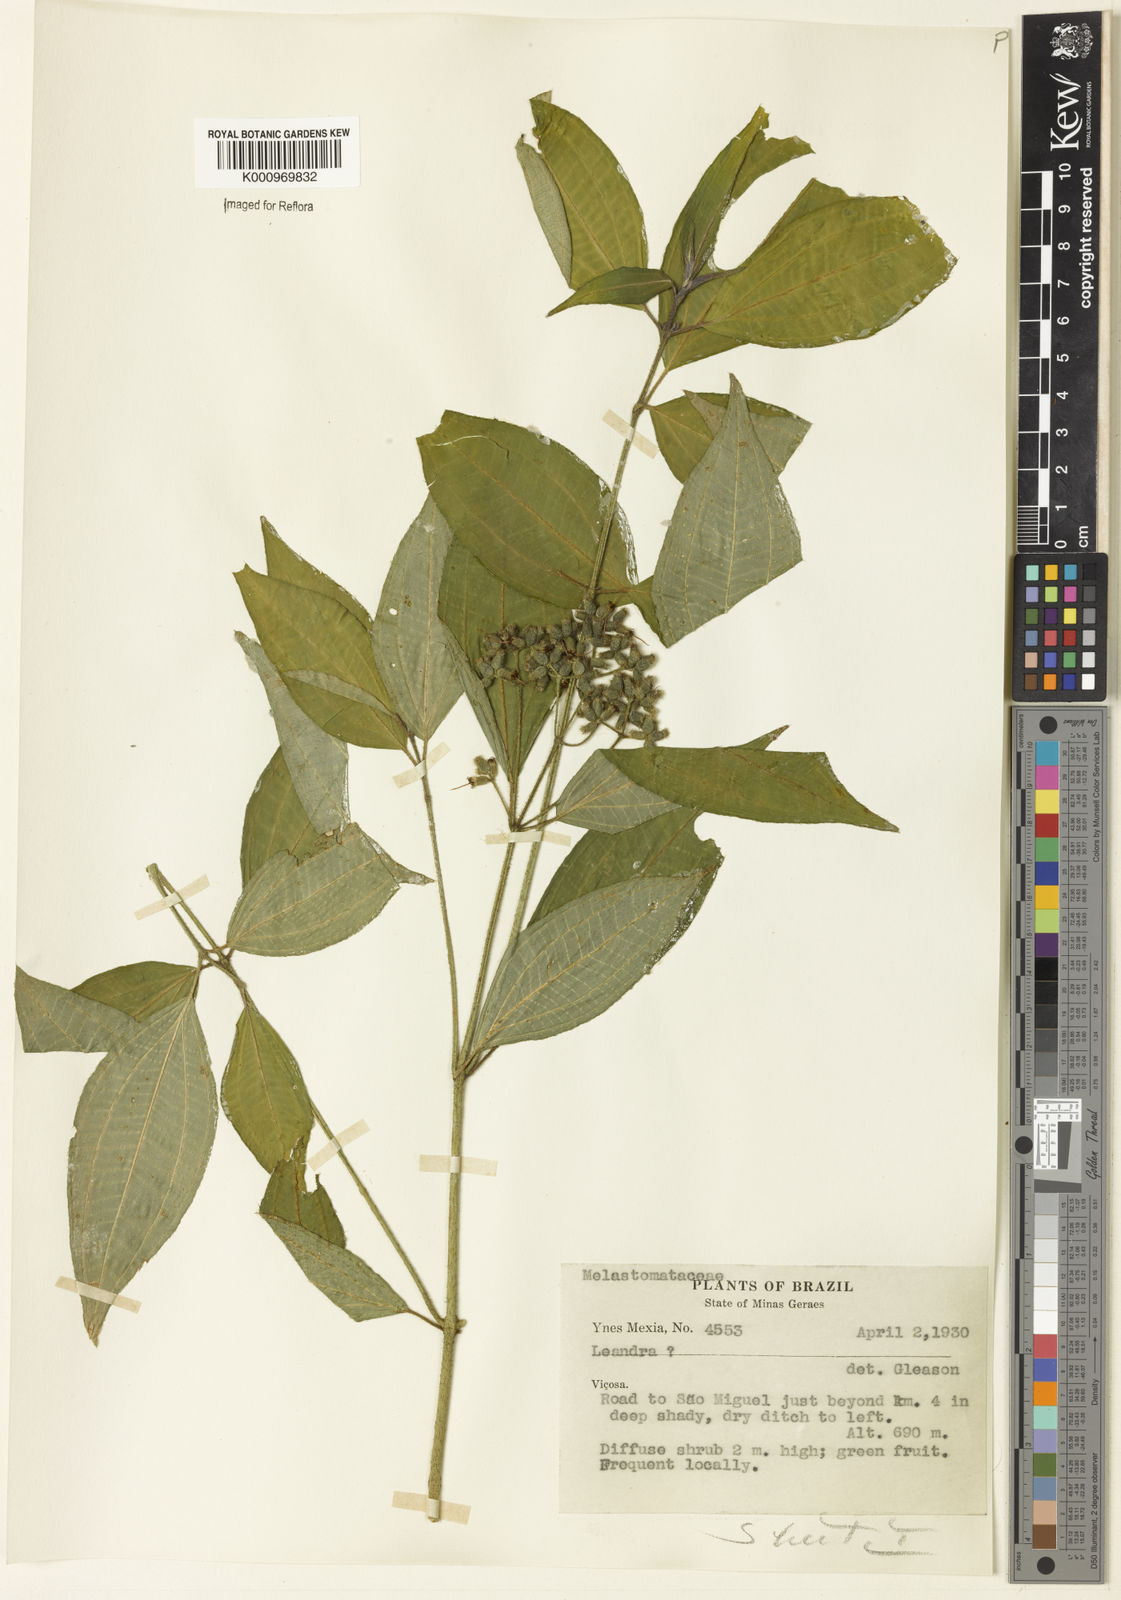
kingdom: Plantae
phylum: Tracheophyta
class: Magnoliopsida
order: Myrtales
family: Melastomataceae
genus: Miconia
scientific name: Miconia
